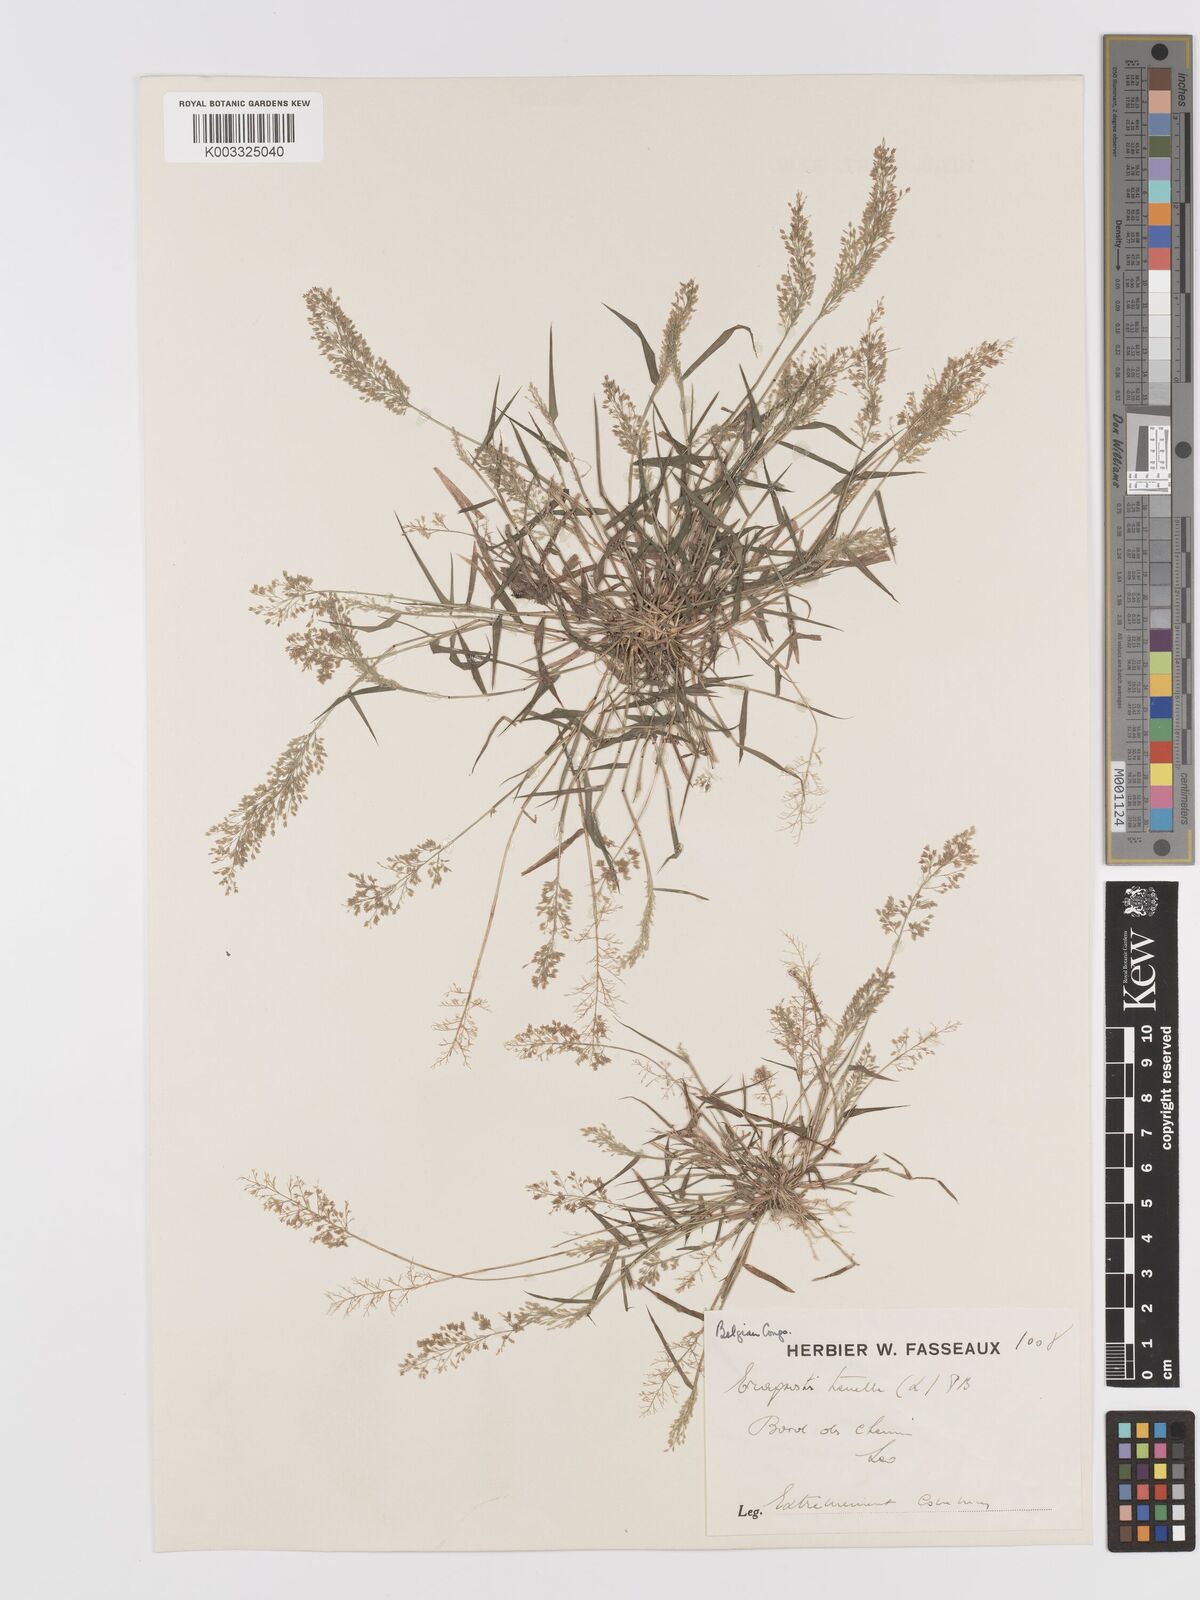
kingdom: Plantae
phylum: Tracheophyta
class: Liliopsida
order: Poales
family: Poaceae
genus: Eragrostis
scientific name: Eragrostis tenella
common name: Japanese lovegrass
